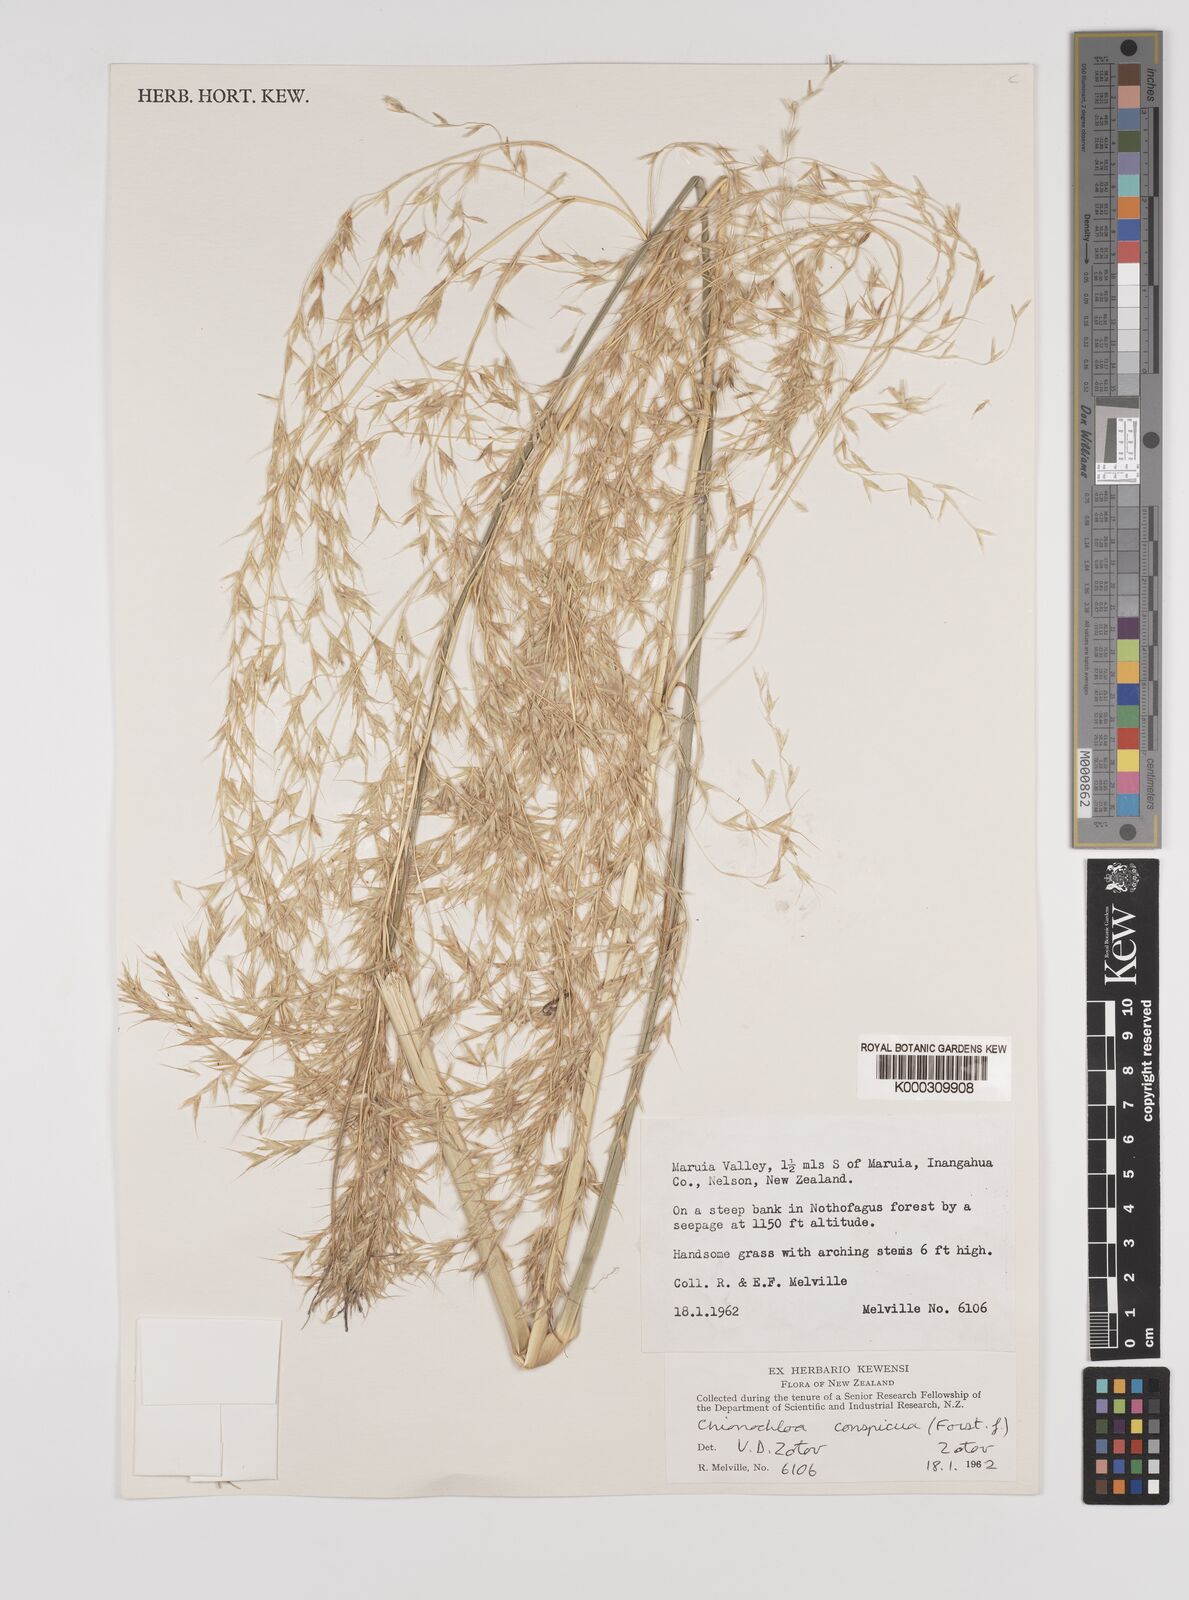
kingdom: Plantae
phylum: Tracheophyta
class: Liliopsida
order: Poales
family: Poaceae
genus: Chionochloa
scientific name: Chionochloa conspicua
